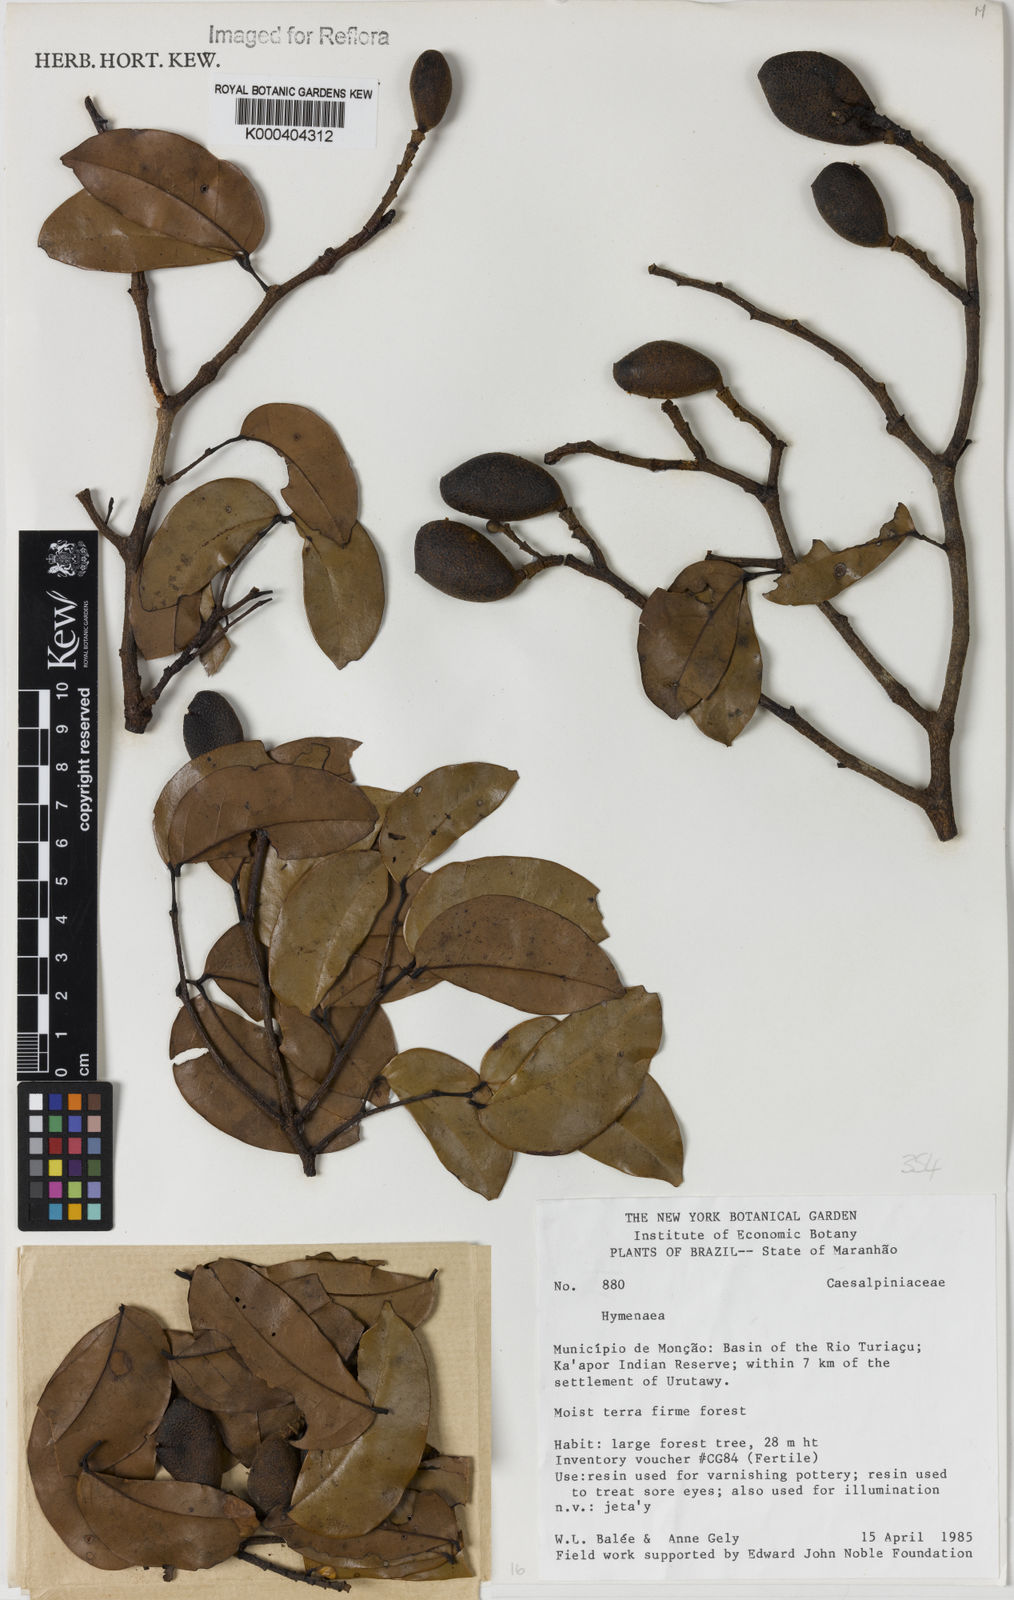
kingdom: Plantae
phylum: Tracheophyta
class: Magnoliopsida
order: Fabales
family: Fabaceae
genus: Hymenaea
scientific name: Hymenaea
